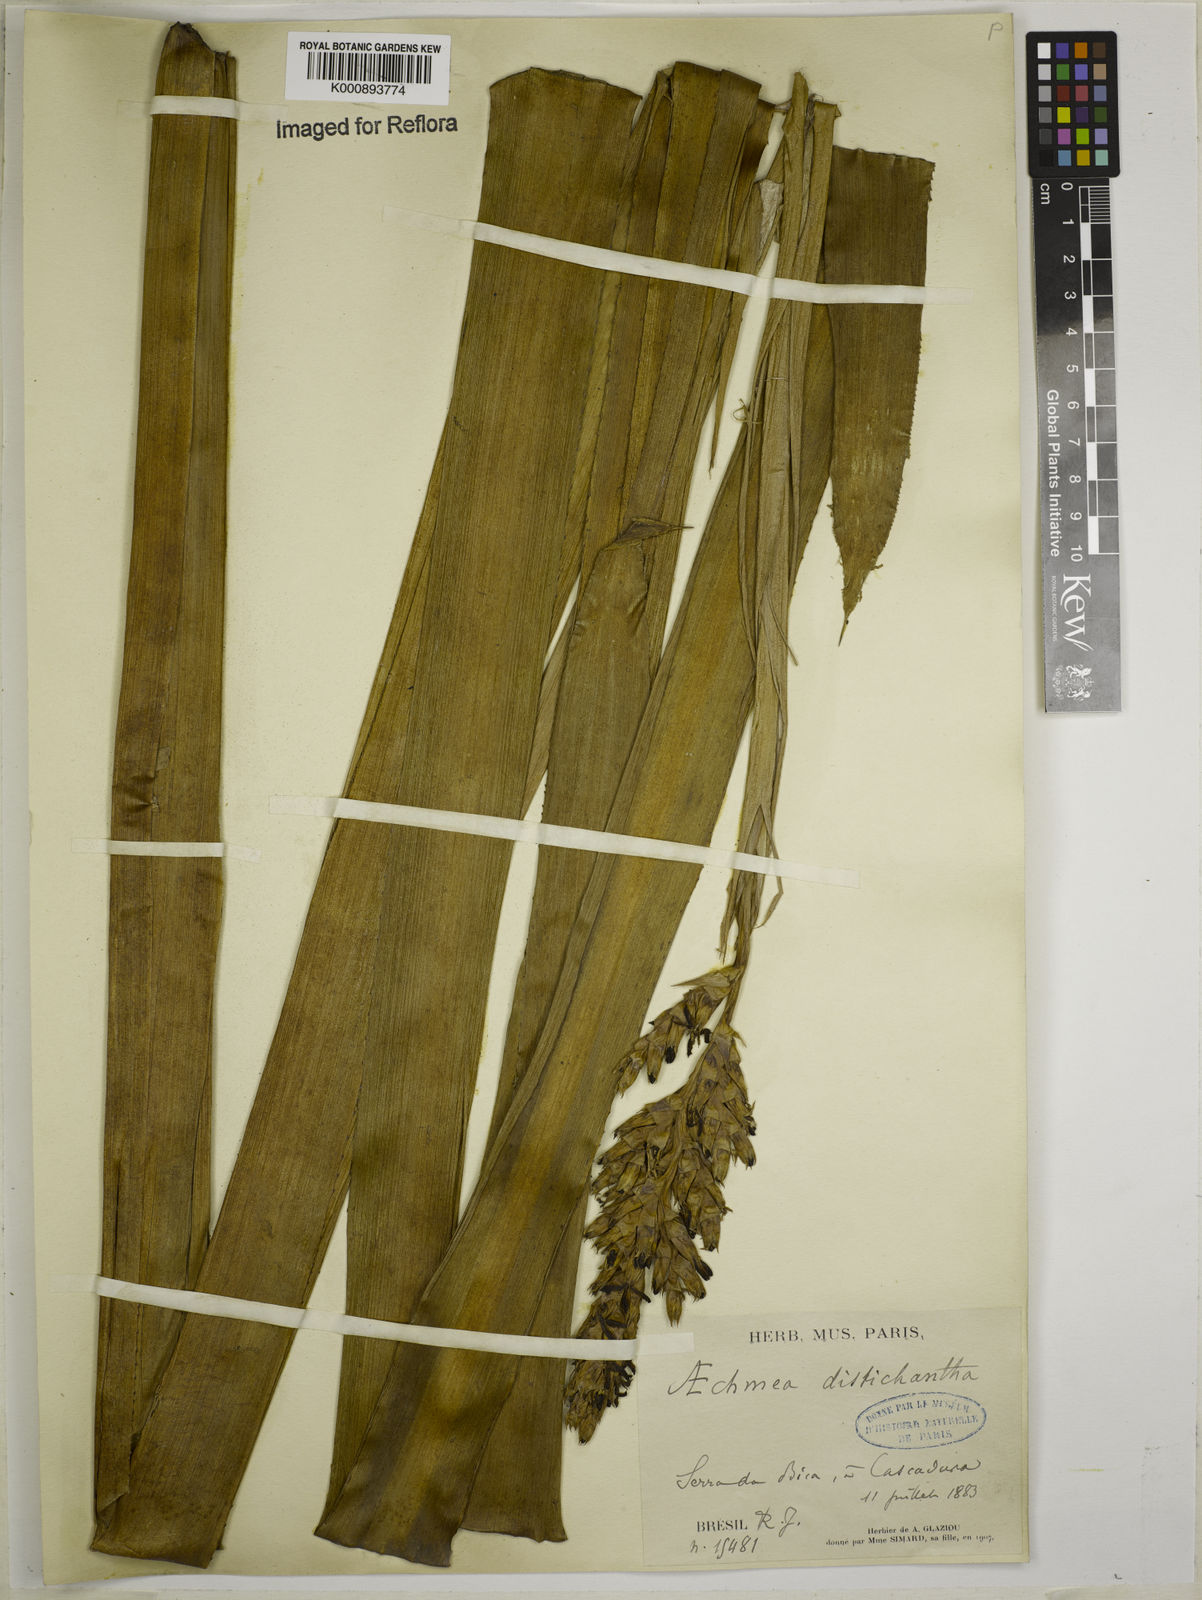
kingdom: Plantae
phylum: Tracheophyta
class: Liliopsida
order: Poales
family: Bromeliaceae
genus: Aechmea
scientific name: Aechmea distichantha
